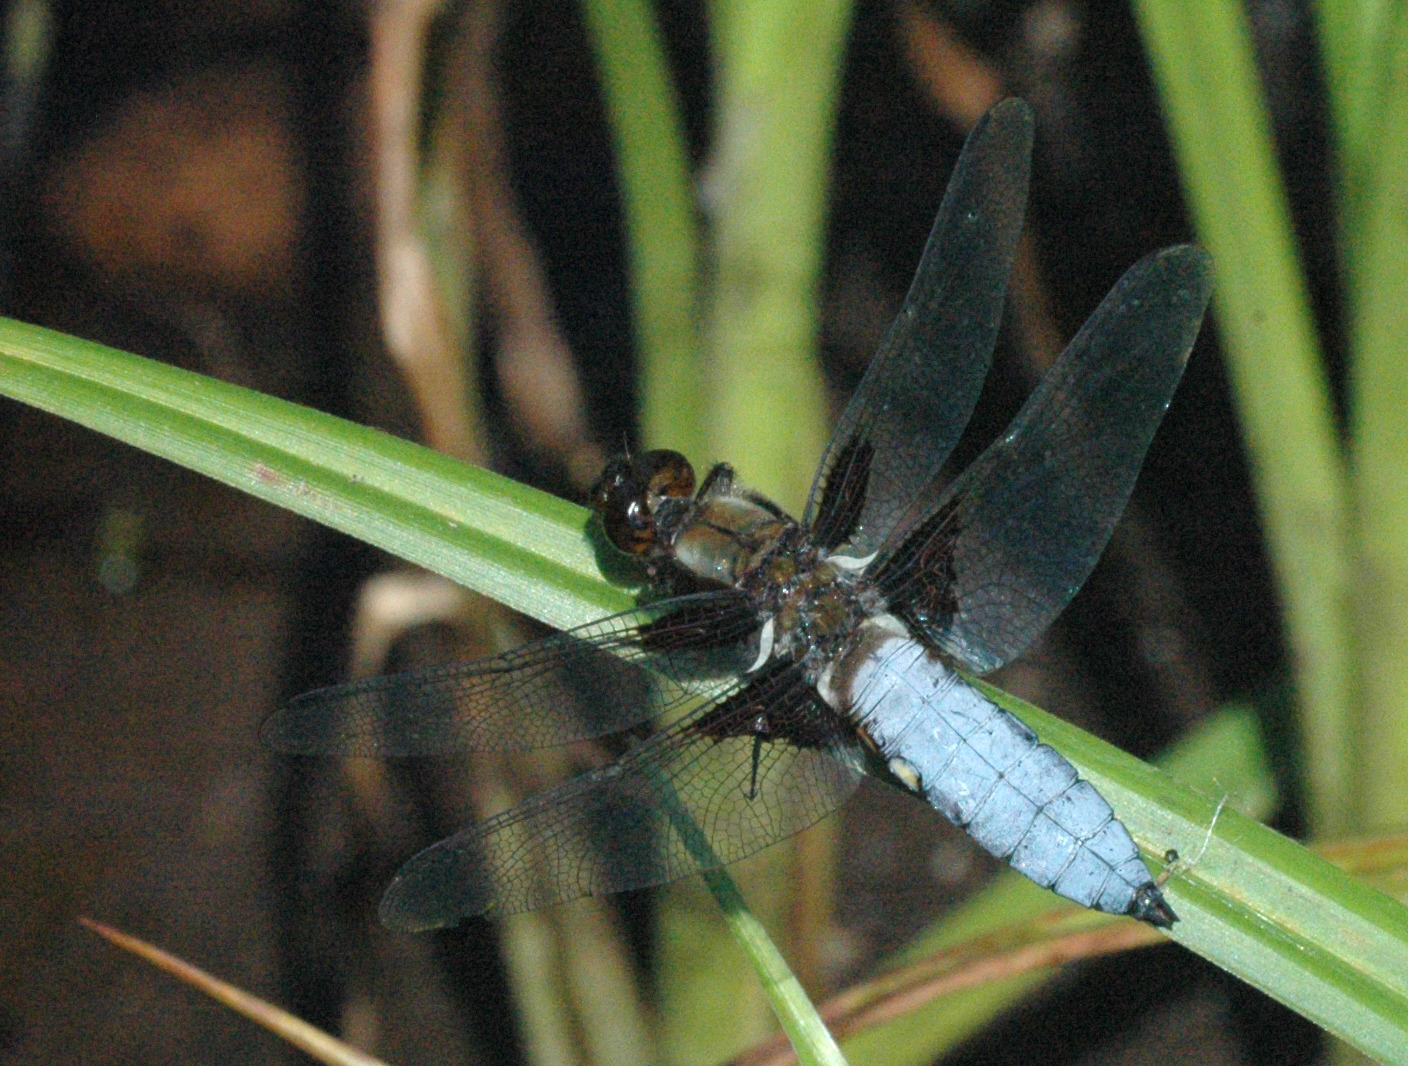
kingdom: Animalia
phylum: Arthropoda
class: Insecta
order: Odonata
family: Libellulidae
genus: Libellula
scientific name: Libellula depressa
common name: Blå libel
